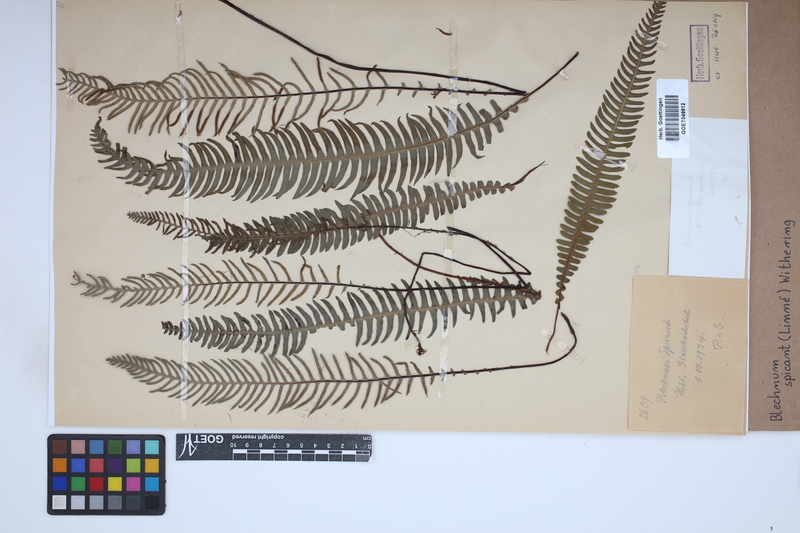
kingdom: Plantae
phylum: Tracheophyta
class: Polypodiopsida
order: Polypodiales
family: Blechnaceae
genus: Struthiopteris
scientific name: Struthiopteris spicant
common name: Deer fern
